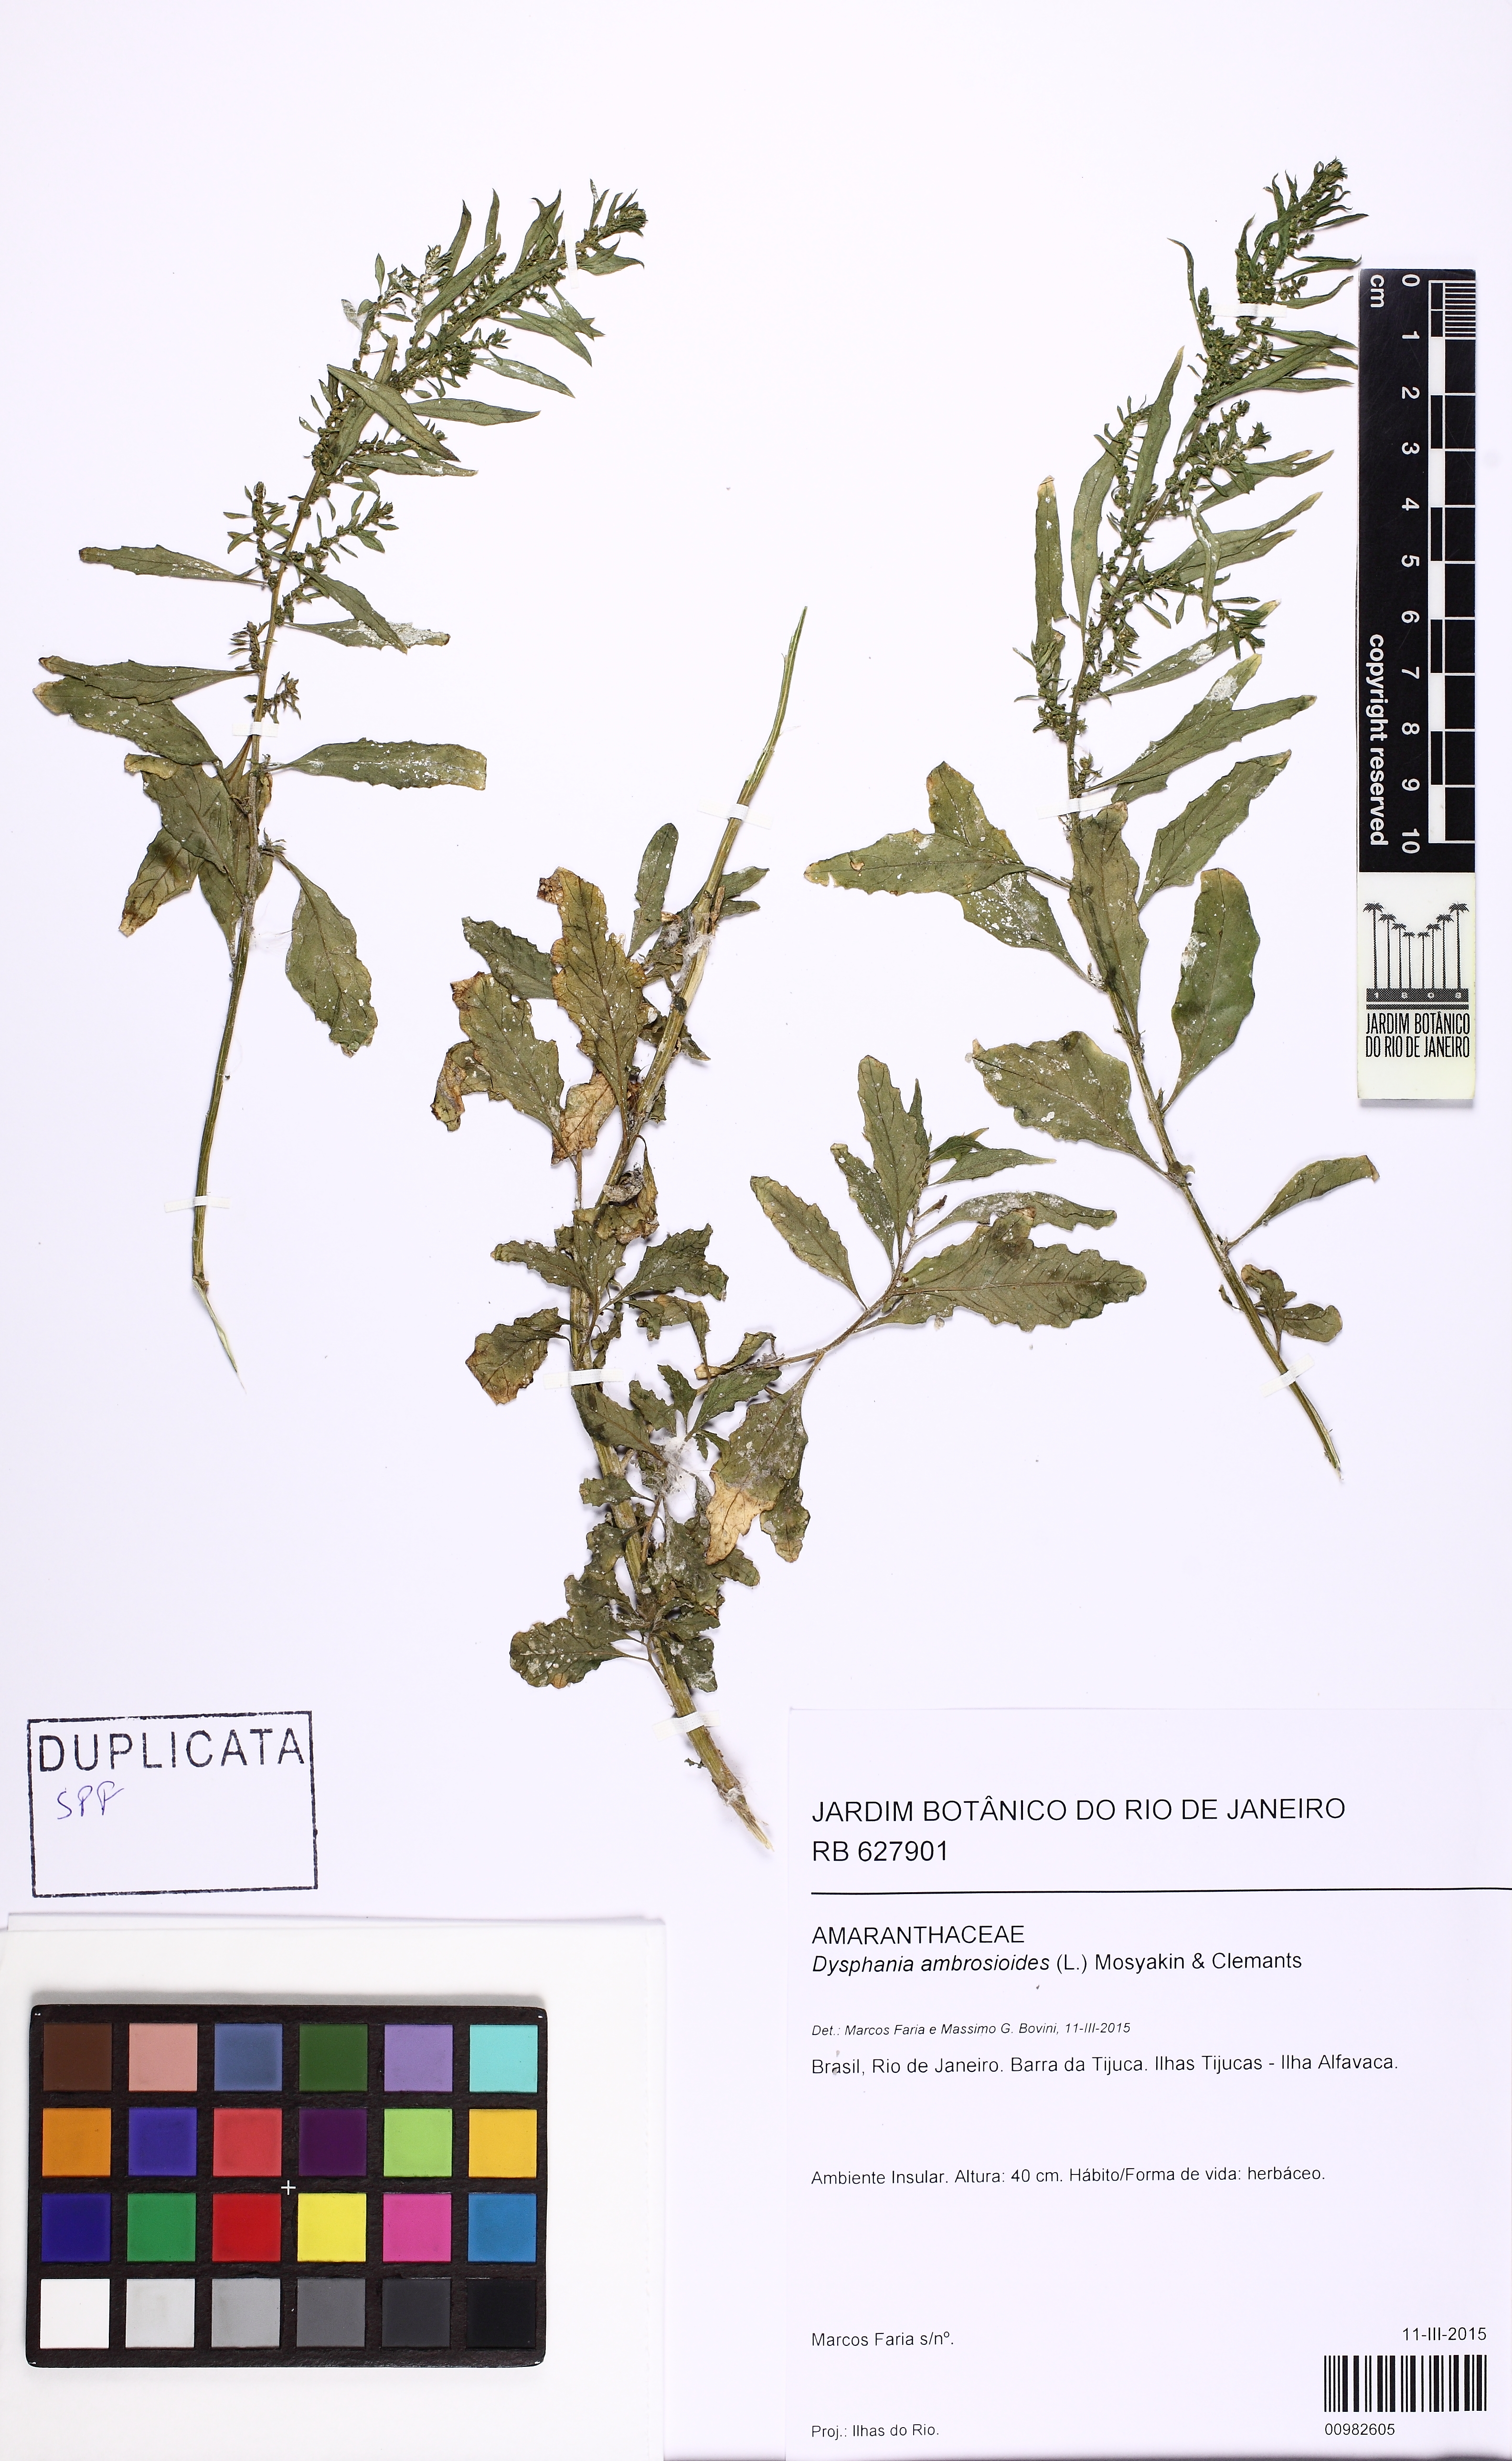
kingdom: Plantae
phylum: Tracheophyta
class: Magnoliopsida
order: Caryophyllales
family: Amaranthaceae
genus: Dysphania
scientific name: Dysphania ambrosioides
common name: Wormseed
